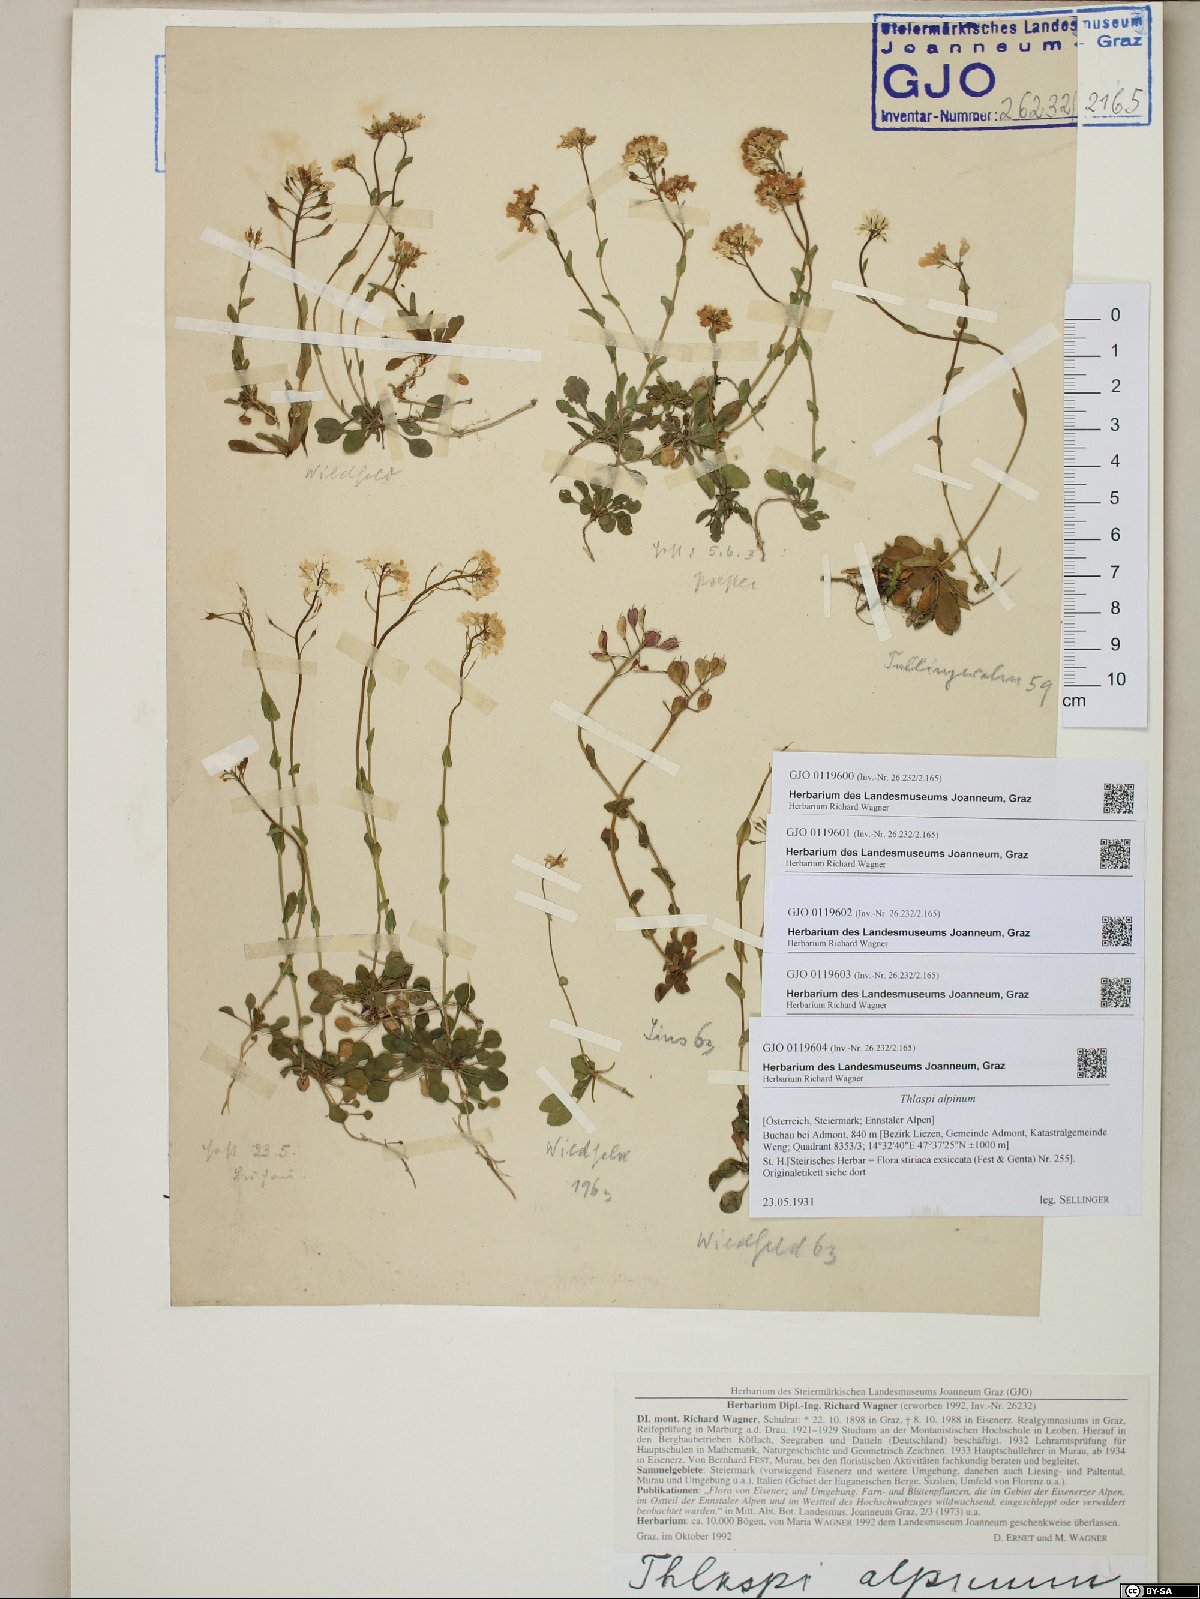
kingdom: Plantae
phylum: Tracheophyta
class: Magnoliopsida
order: Brassicales
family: Brassicaceae
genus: Noccaea
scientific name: Noccaea alpestris
